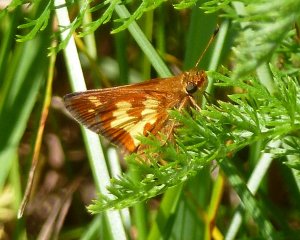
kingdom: Animalia
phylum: Arthropoda
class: Insecta
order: Lepidoptera
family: Hesperiidae
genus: Polites
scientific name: Polites coras
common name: Peck's Skipper
